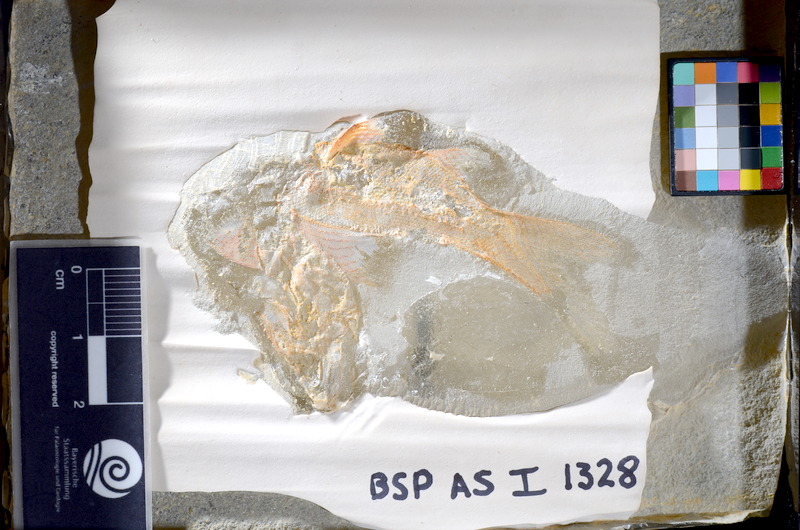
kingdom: Animalia
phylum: Chordata
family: Coccolepididae
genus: Coccolepis
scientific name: Coccolepis bucklandi
